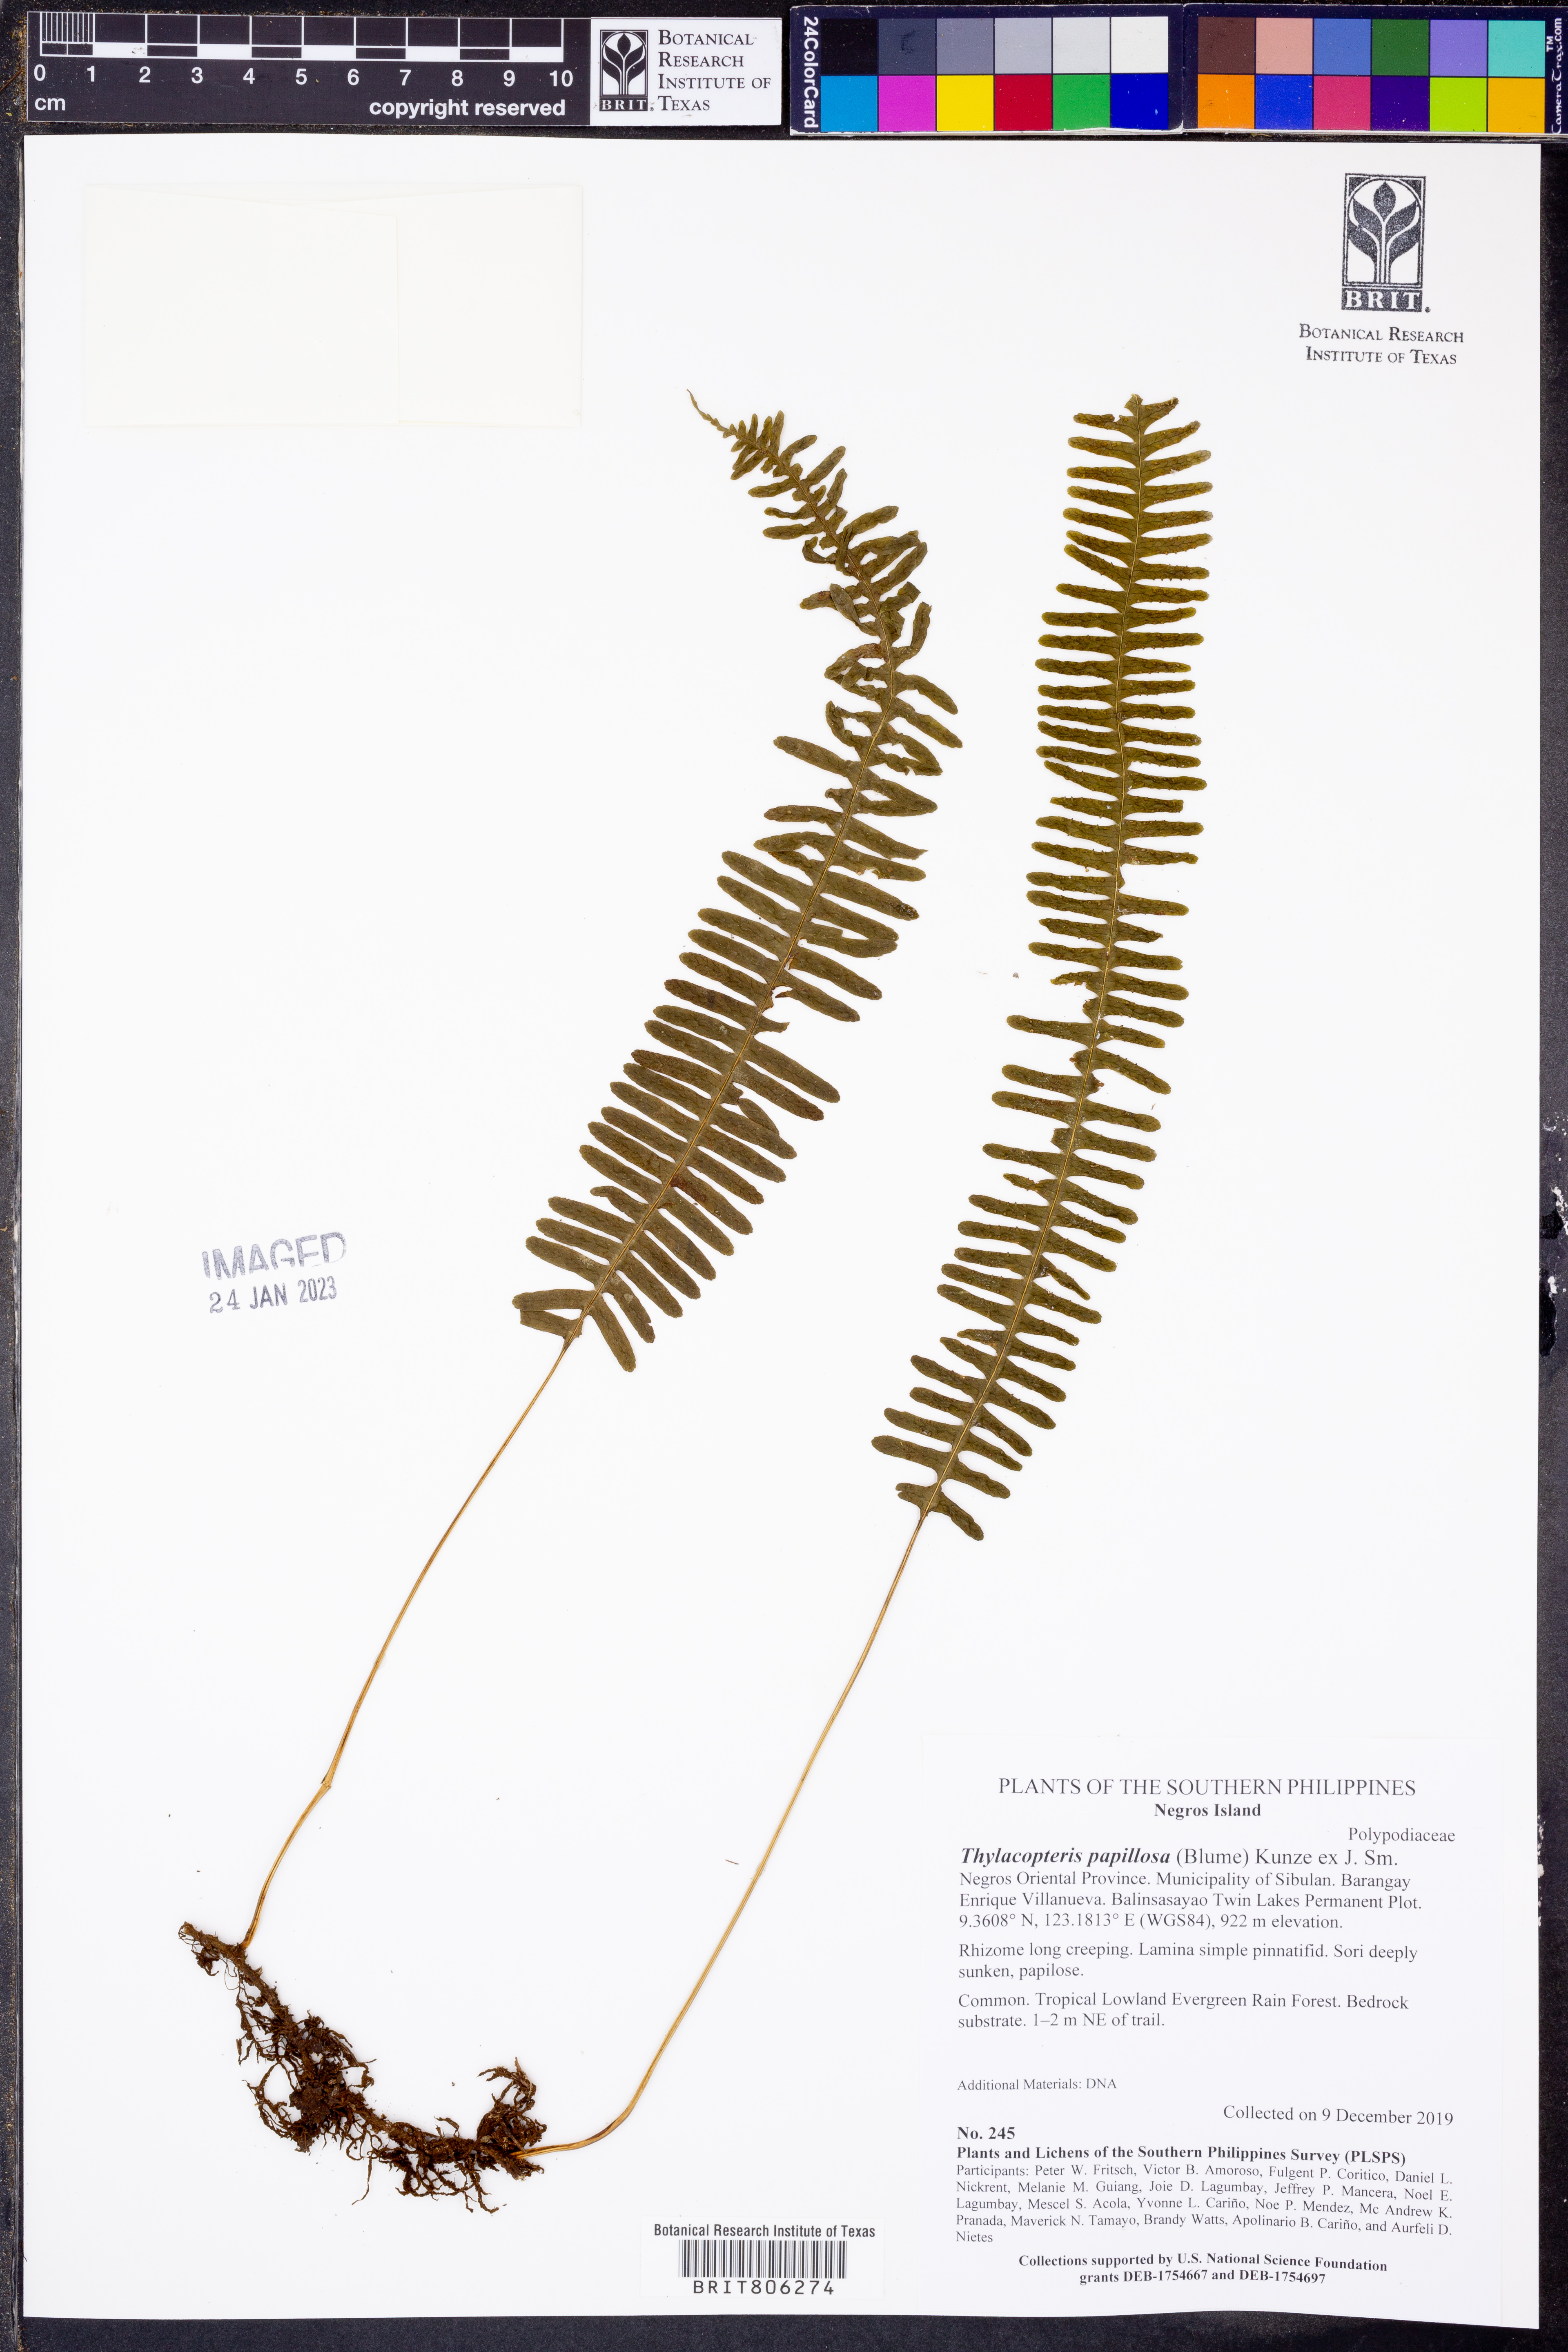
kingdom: Plantae
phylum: Tracheophyta
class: Polypodiopsida
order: Polypodiales
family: Polypodiaceae
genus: Thylacopteris
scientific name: Thylacopteris papillosa
